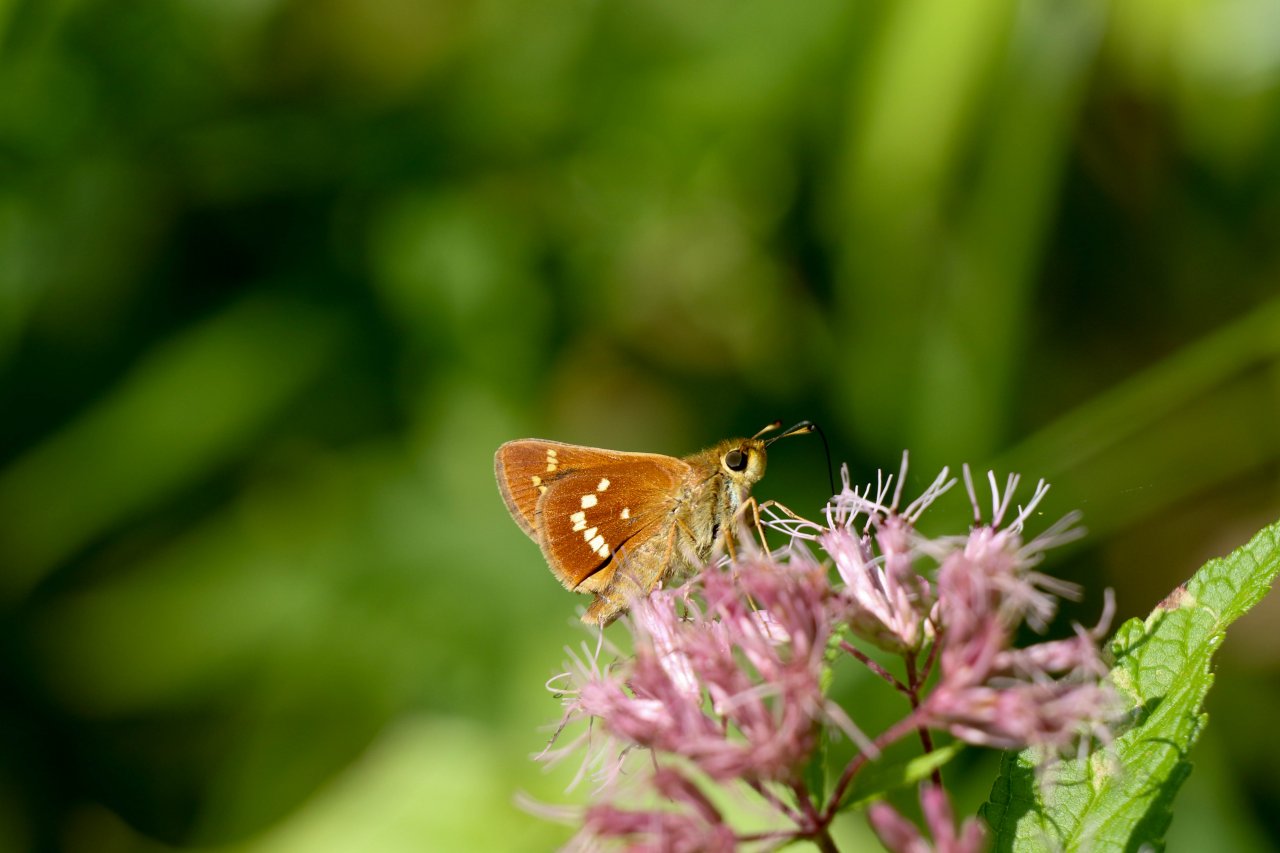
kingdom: Animalia
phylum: Arthropoda
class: Insecta
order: Lepidoptera
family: Hesperiidae
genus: Hesperia
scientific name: Hesperia leonardus
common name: Leonard's Skipper
